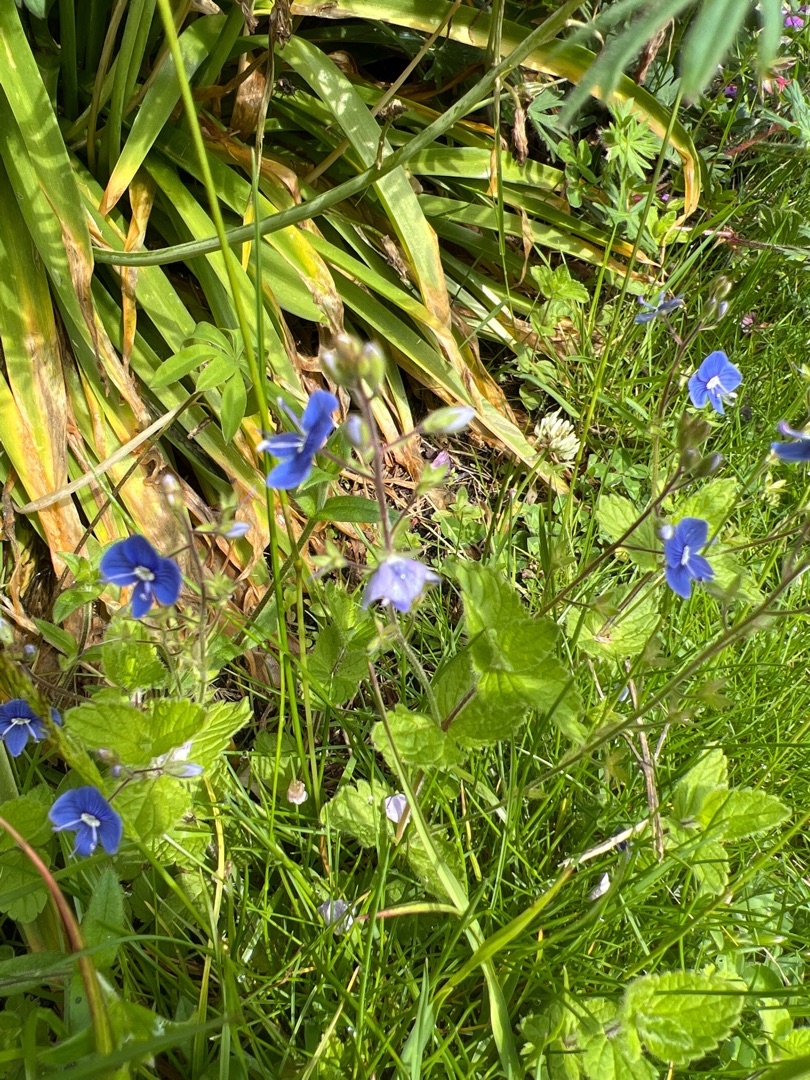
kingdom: Plantae
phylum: Tracheophyta
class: Magnoliopsida
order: Lamiales
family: Plantaginaceae
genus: Veronica
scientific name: Veronica chamaedrys
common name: Tveskægget ærenpris
